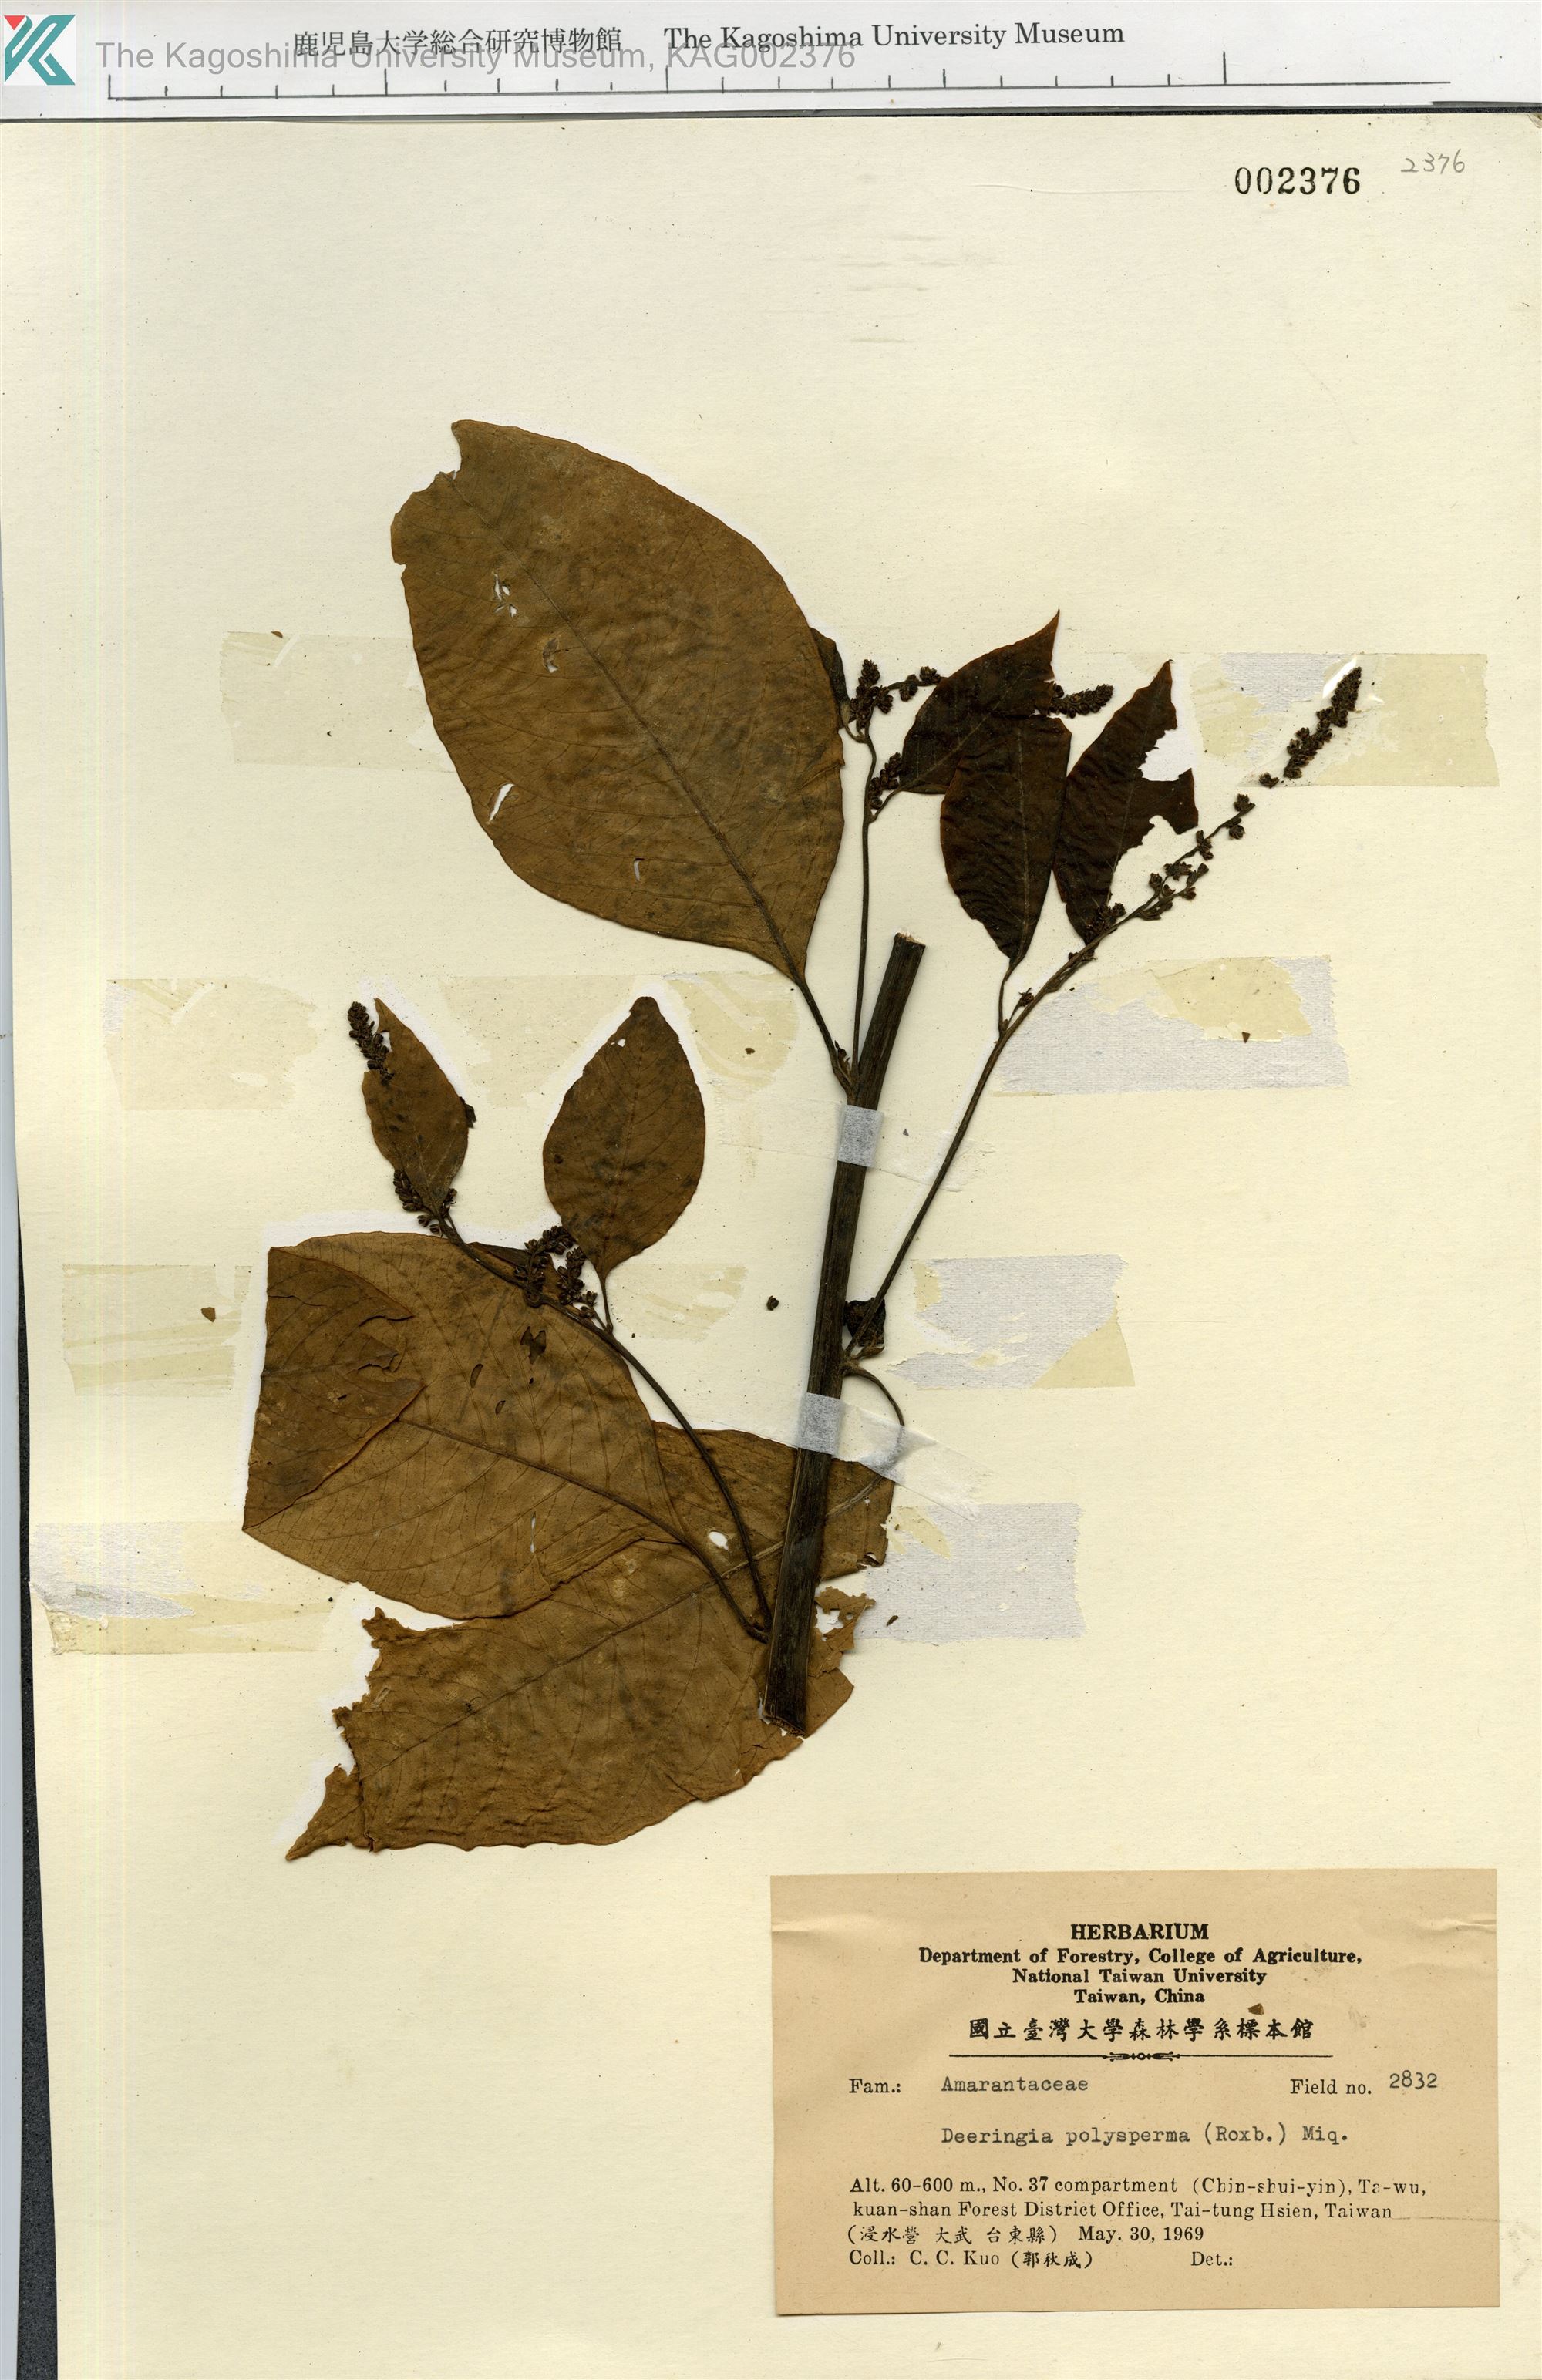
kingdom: Plantae
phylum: Tracheophyta
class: Magnoliopsida
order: Caryophyllales
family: Amaranthaceae
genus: Deeringia
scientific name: Deeringia polysperma
